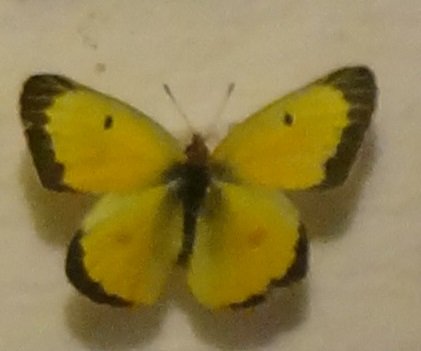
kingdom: Animalia
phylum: Arthropoda
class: Insecta
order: Lepidoptera
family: Pieridae
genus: Colias
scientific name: Colias eurytheme
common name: Orange Sulphur
